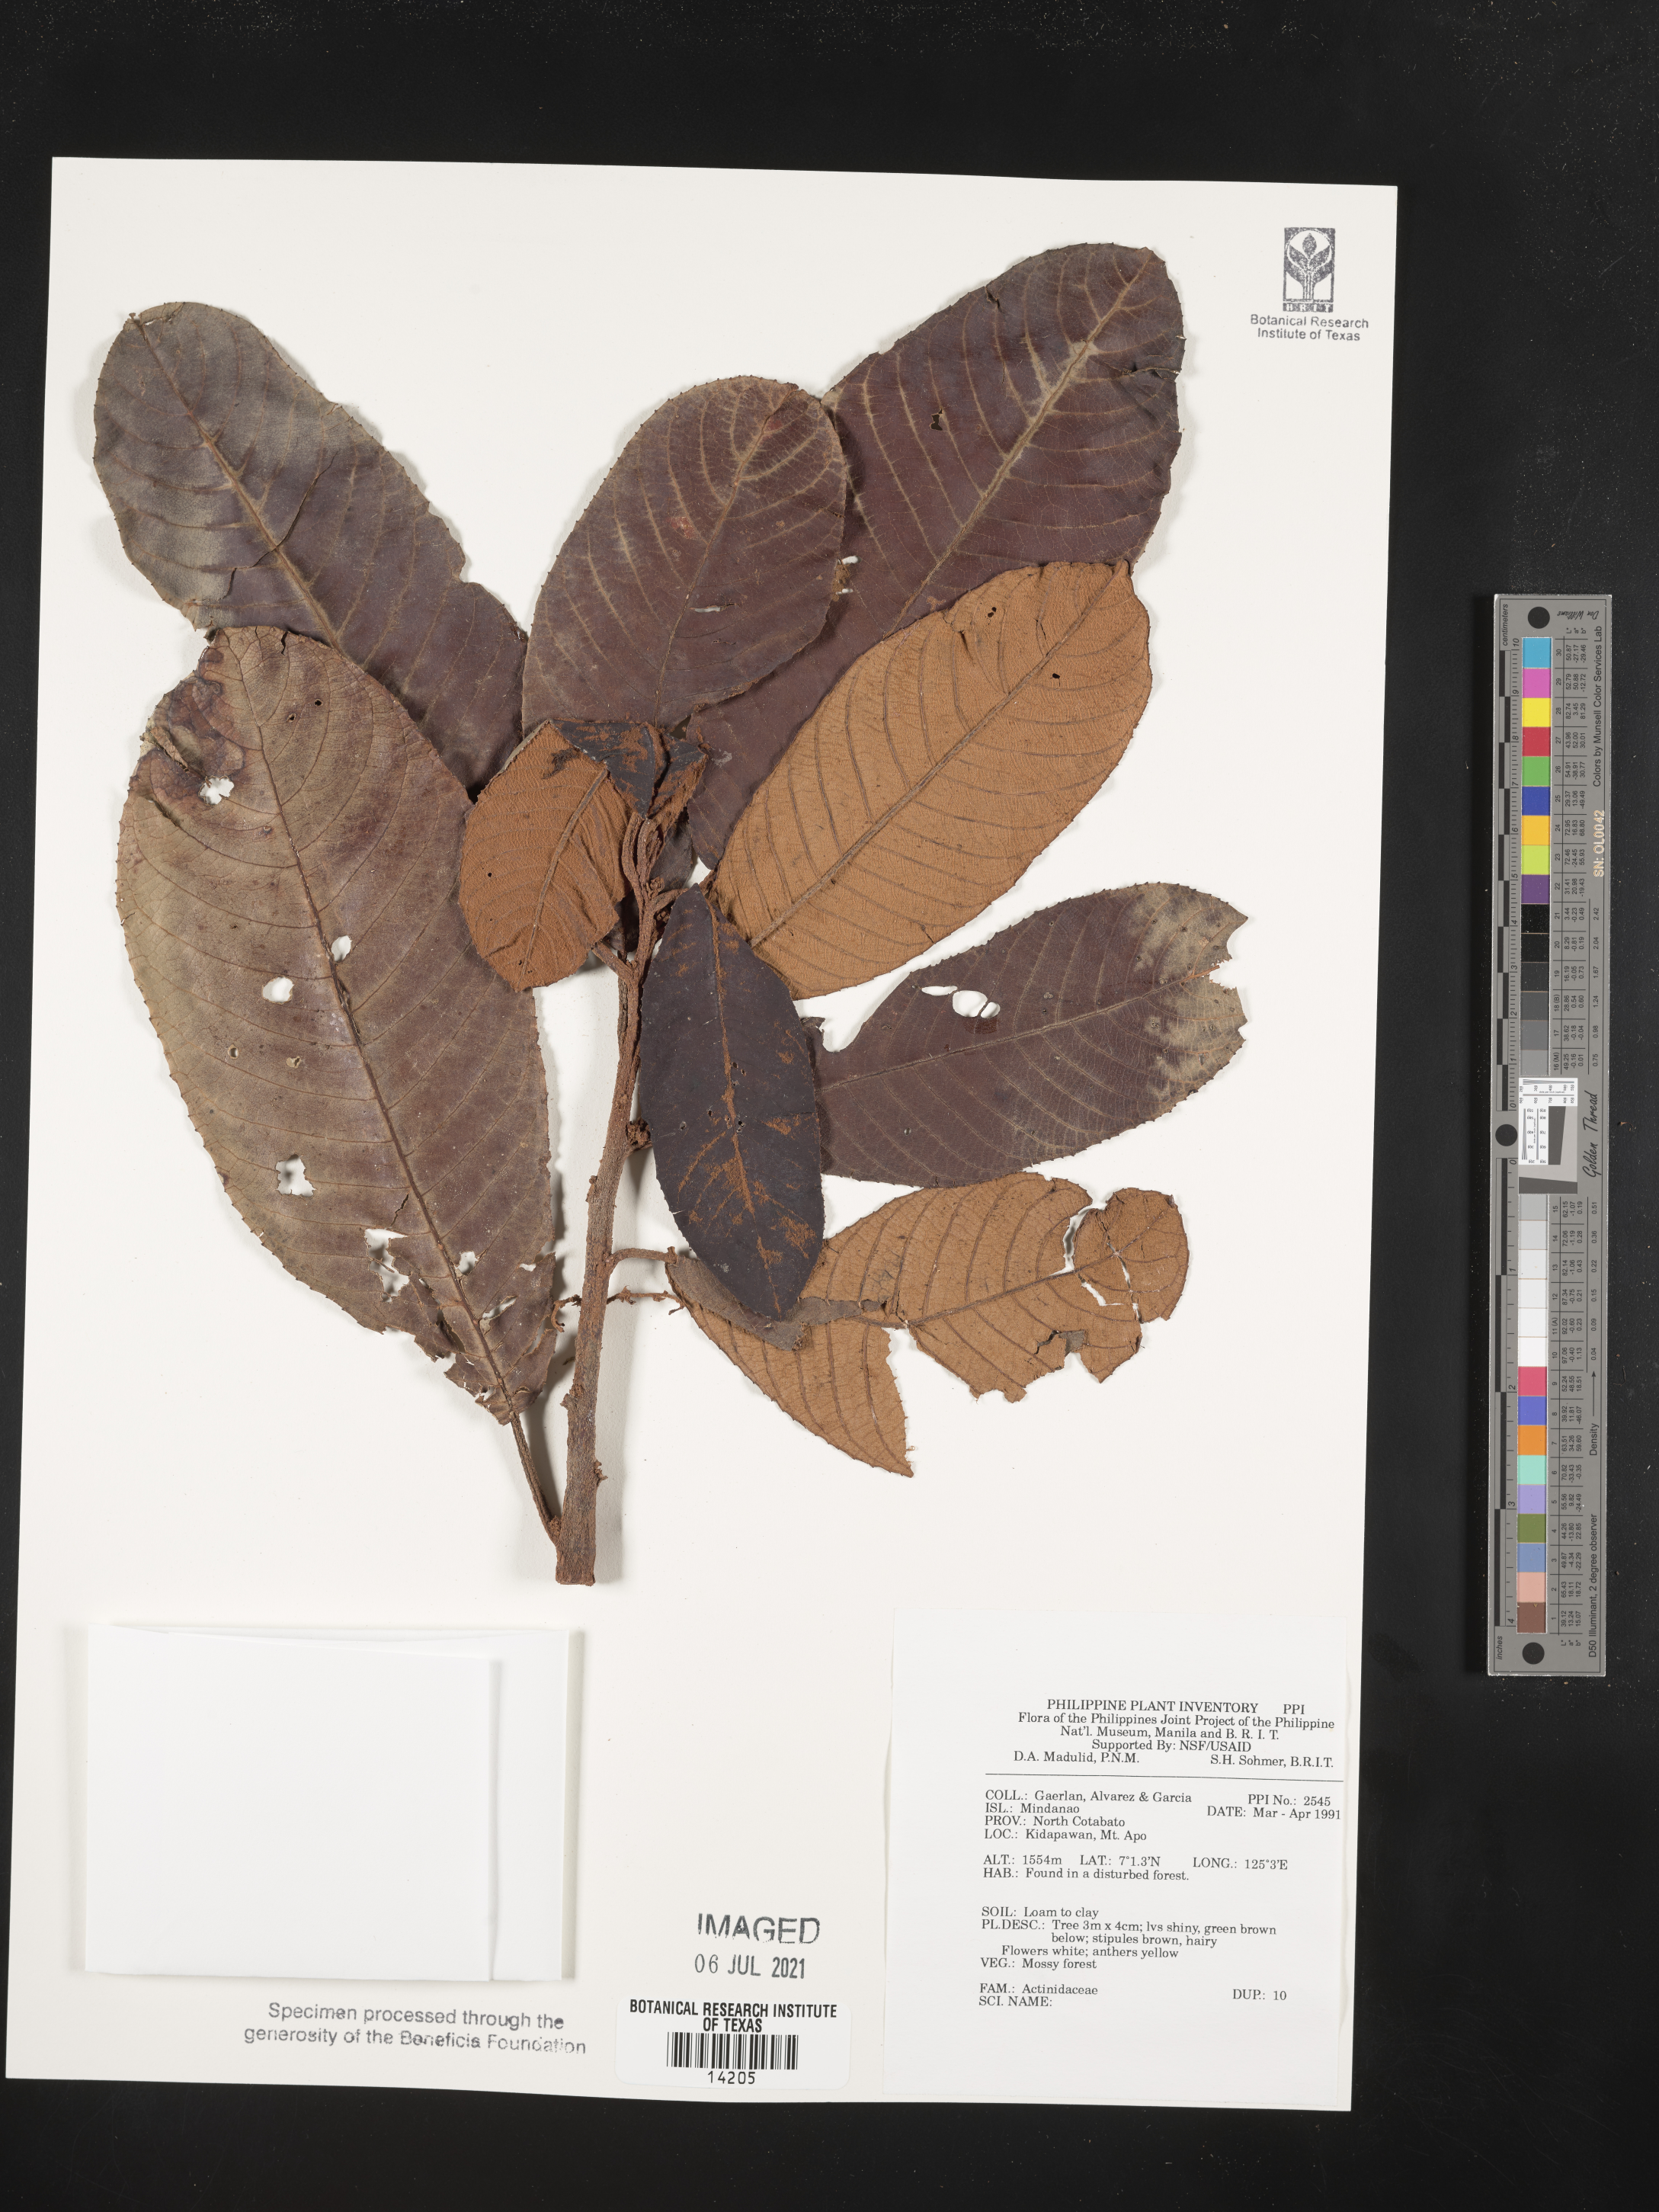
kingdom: Plantae
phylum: Tracheophyta
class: Magnoliopsida
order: Ericales
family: Actinidiaceae
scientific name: Actinidiaceae
